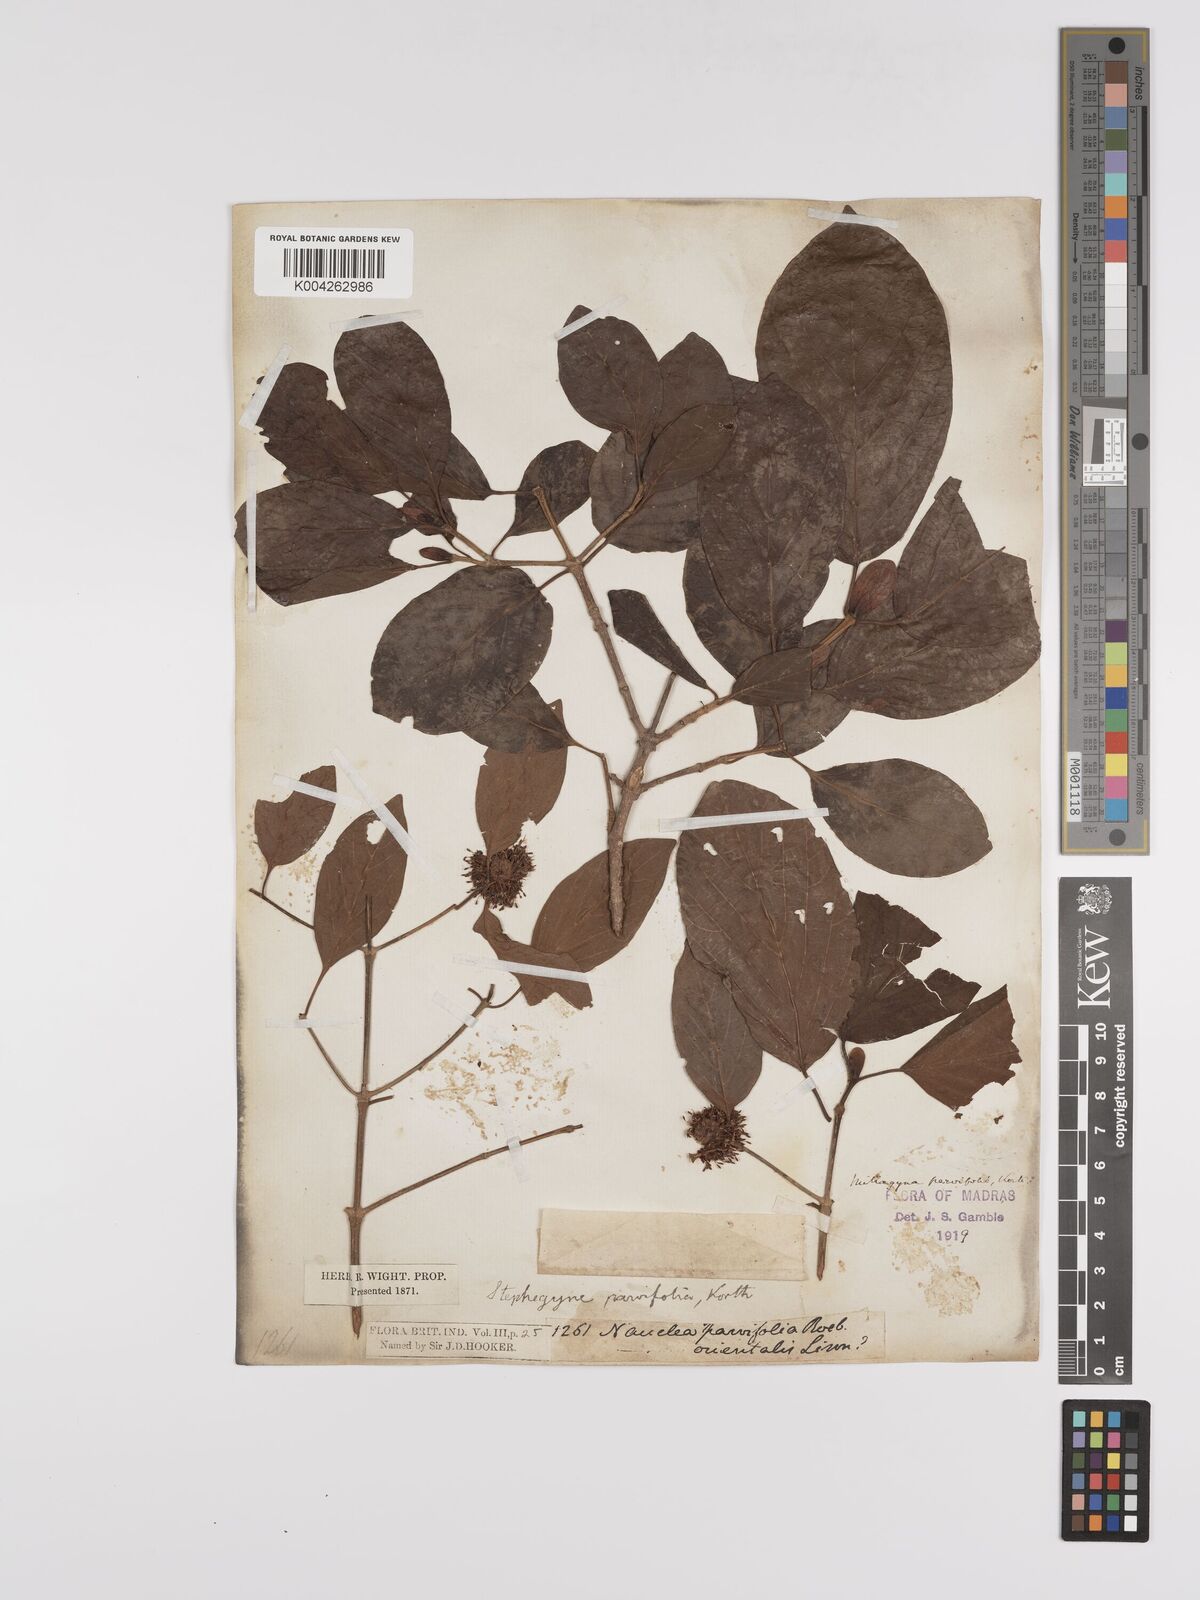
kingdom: Plantae
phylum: Tracheophyta
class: Magnoliopsida
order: Gentianales
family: Rubiaceae
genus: Mitragyna
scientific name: Mitragyna parvifolia
